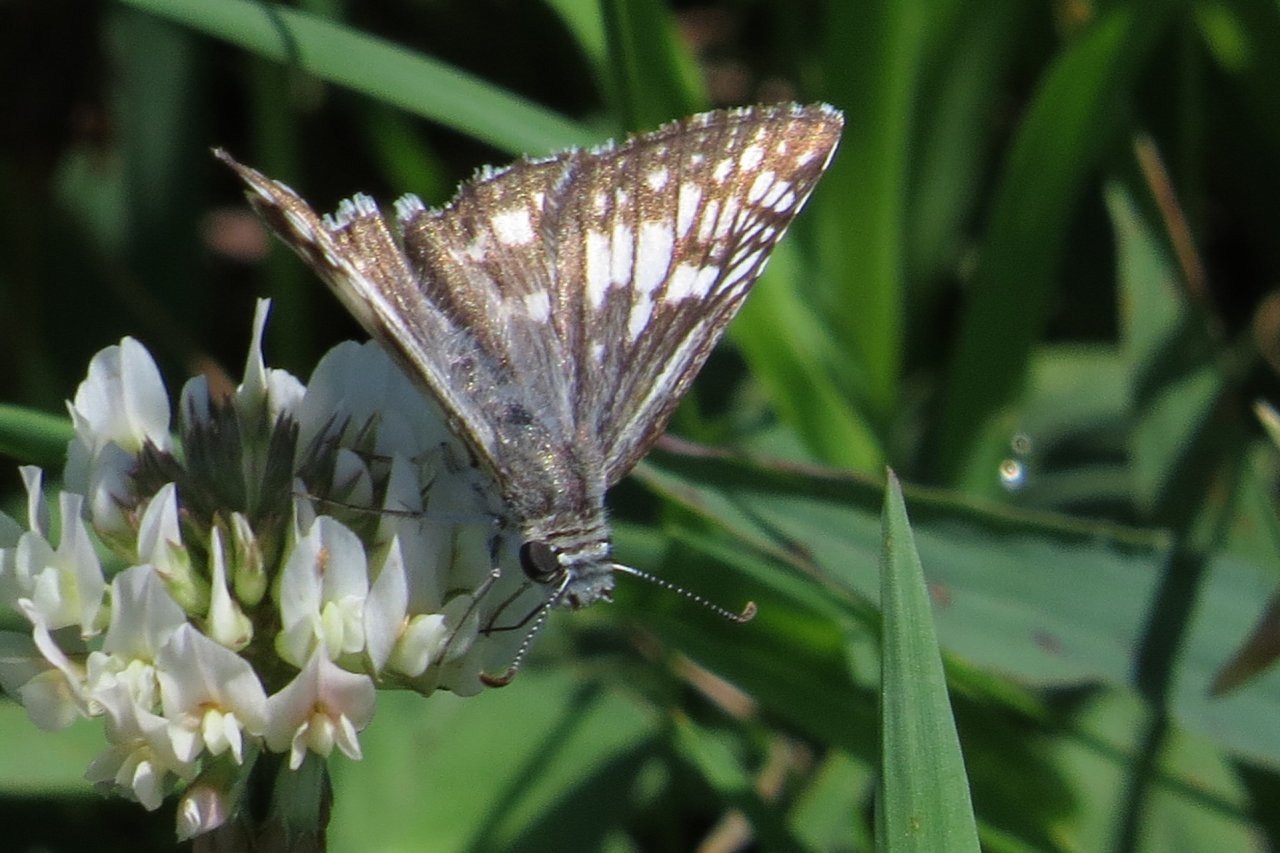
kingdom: Animalia
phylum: Arthropoda
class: Insecta
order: Lepidoptera
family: Hesperiidae
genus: Pyrgus
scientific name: Pyrgus communis
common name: Common Checkered-Skipper
